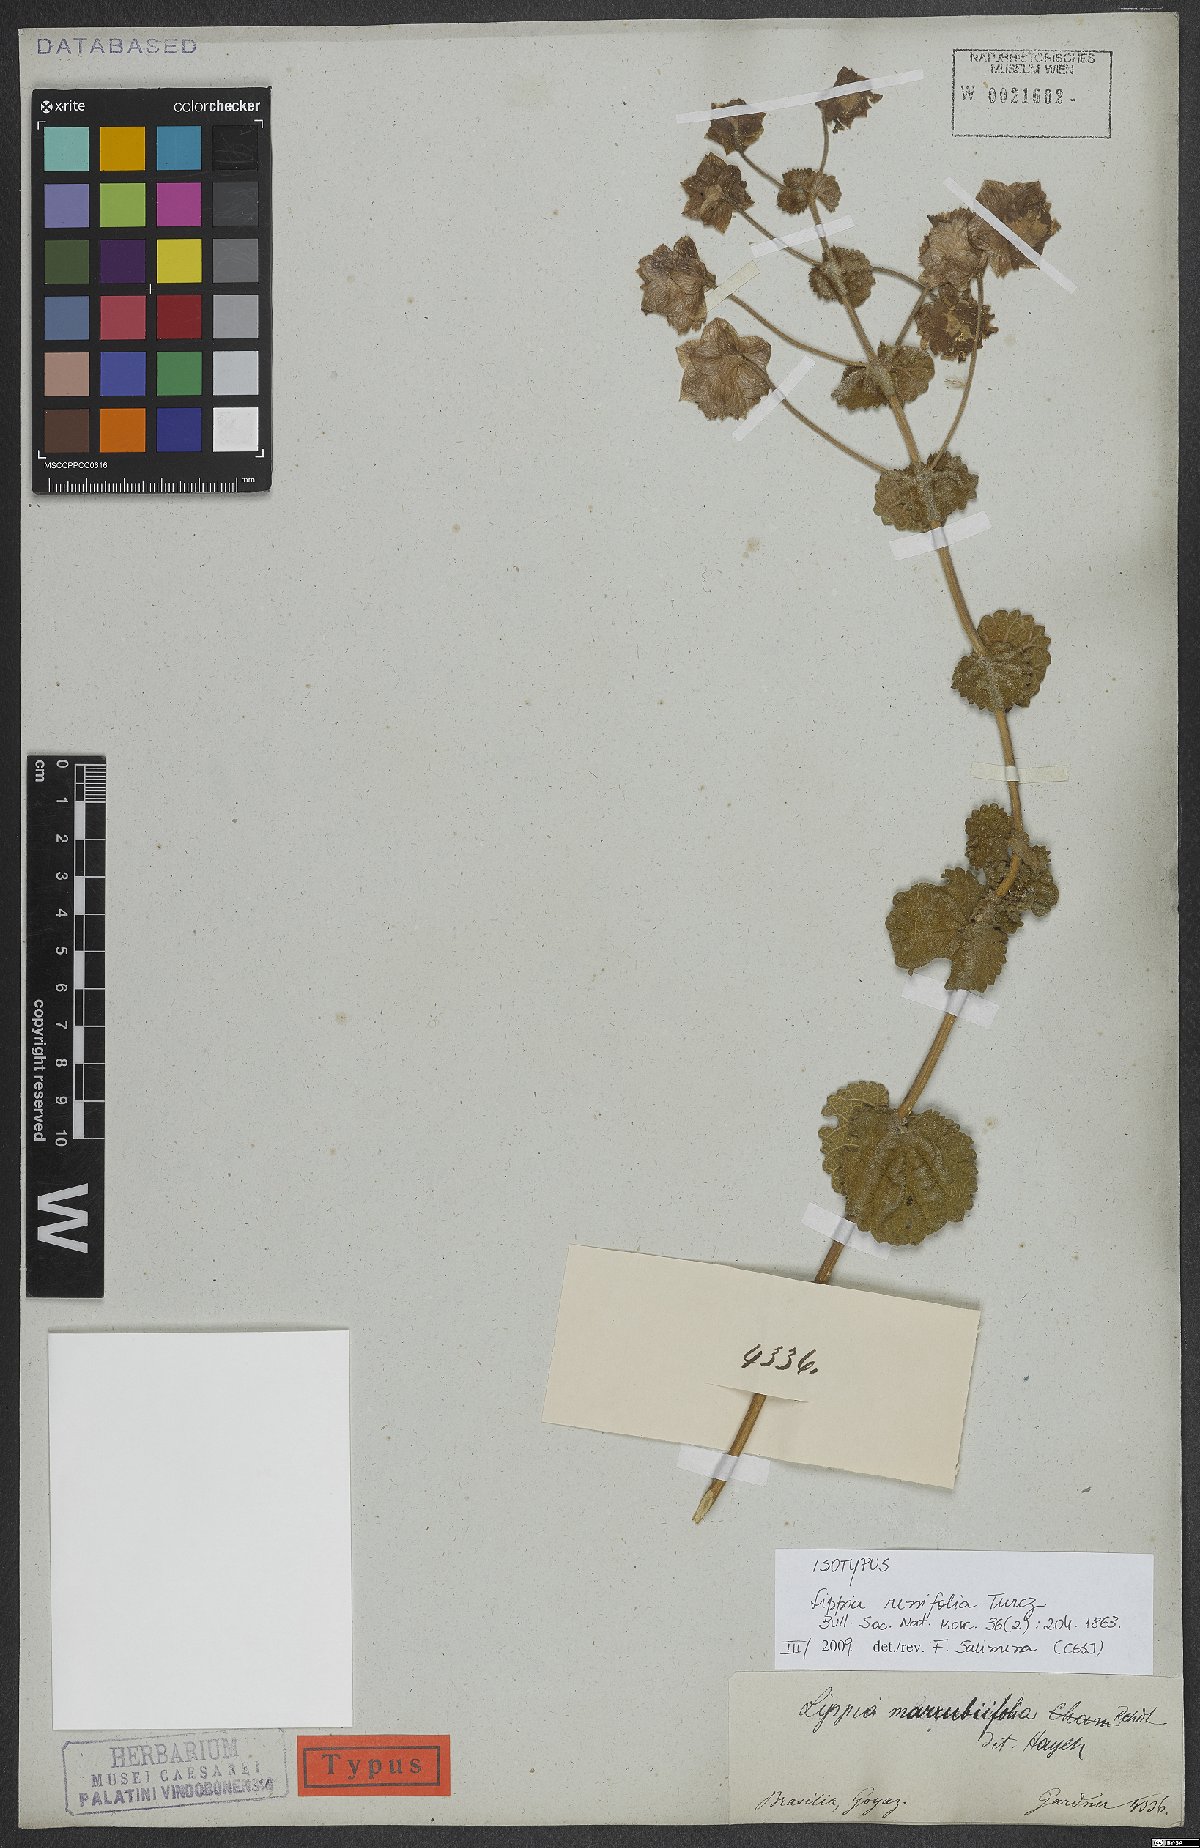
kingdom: Plantae
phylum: Tracheophyta
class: Magnoliopsida
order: Lamiales
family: Verbenaceae
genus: Lippia
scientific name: Lippia renifolia
